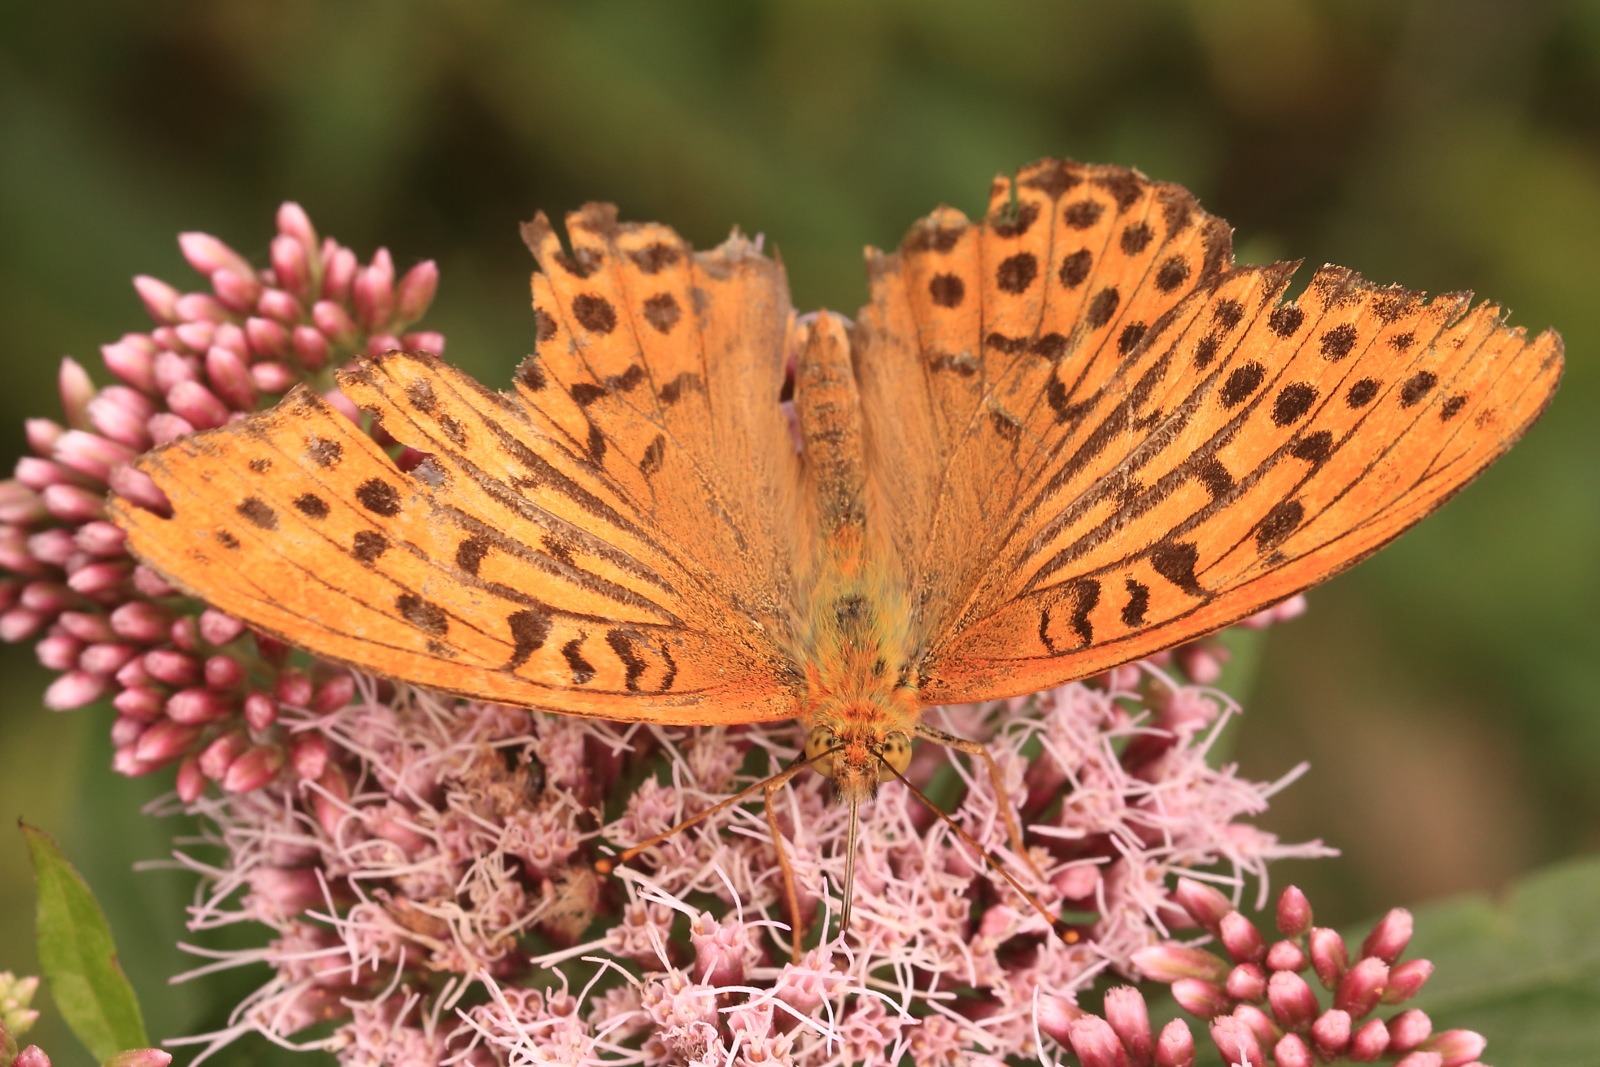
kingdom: Animalia
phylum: Arthropoda
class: Insecta
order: Lepidoptera
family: Nymphalidae
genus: Argynnis
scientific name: Argynnis paphia
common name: Kejserkåbe
